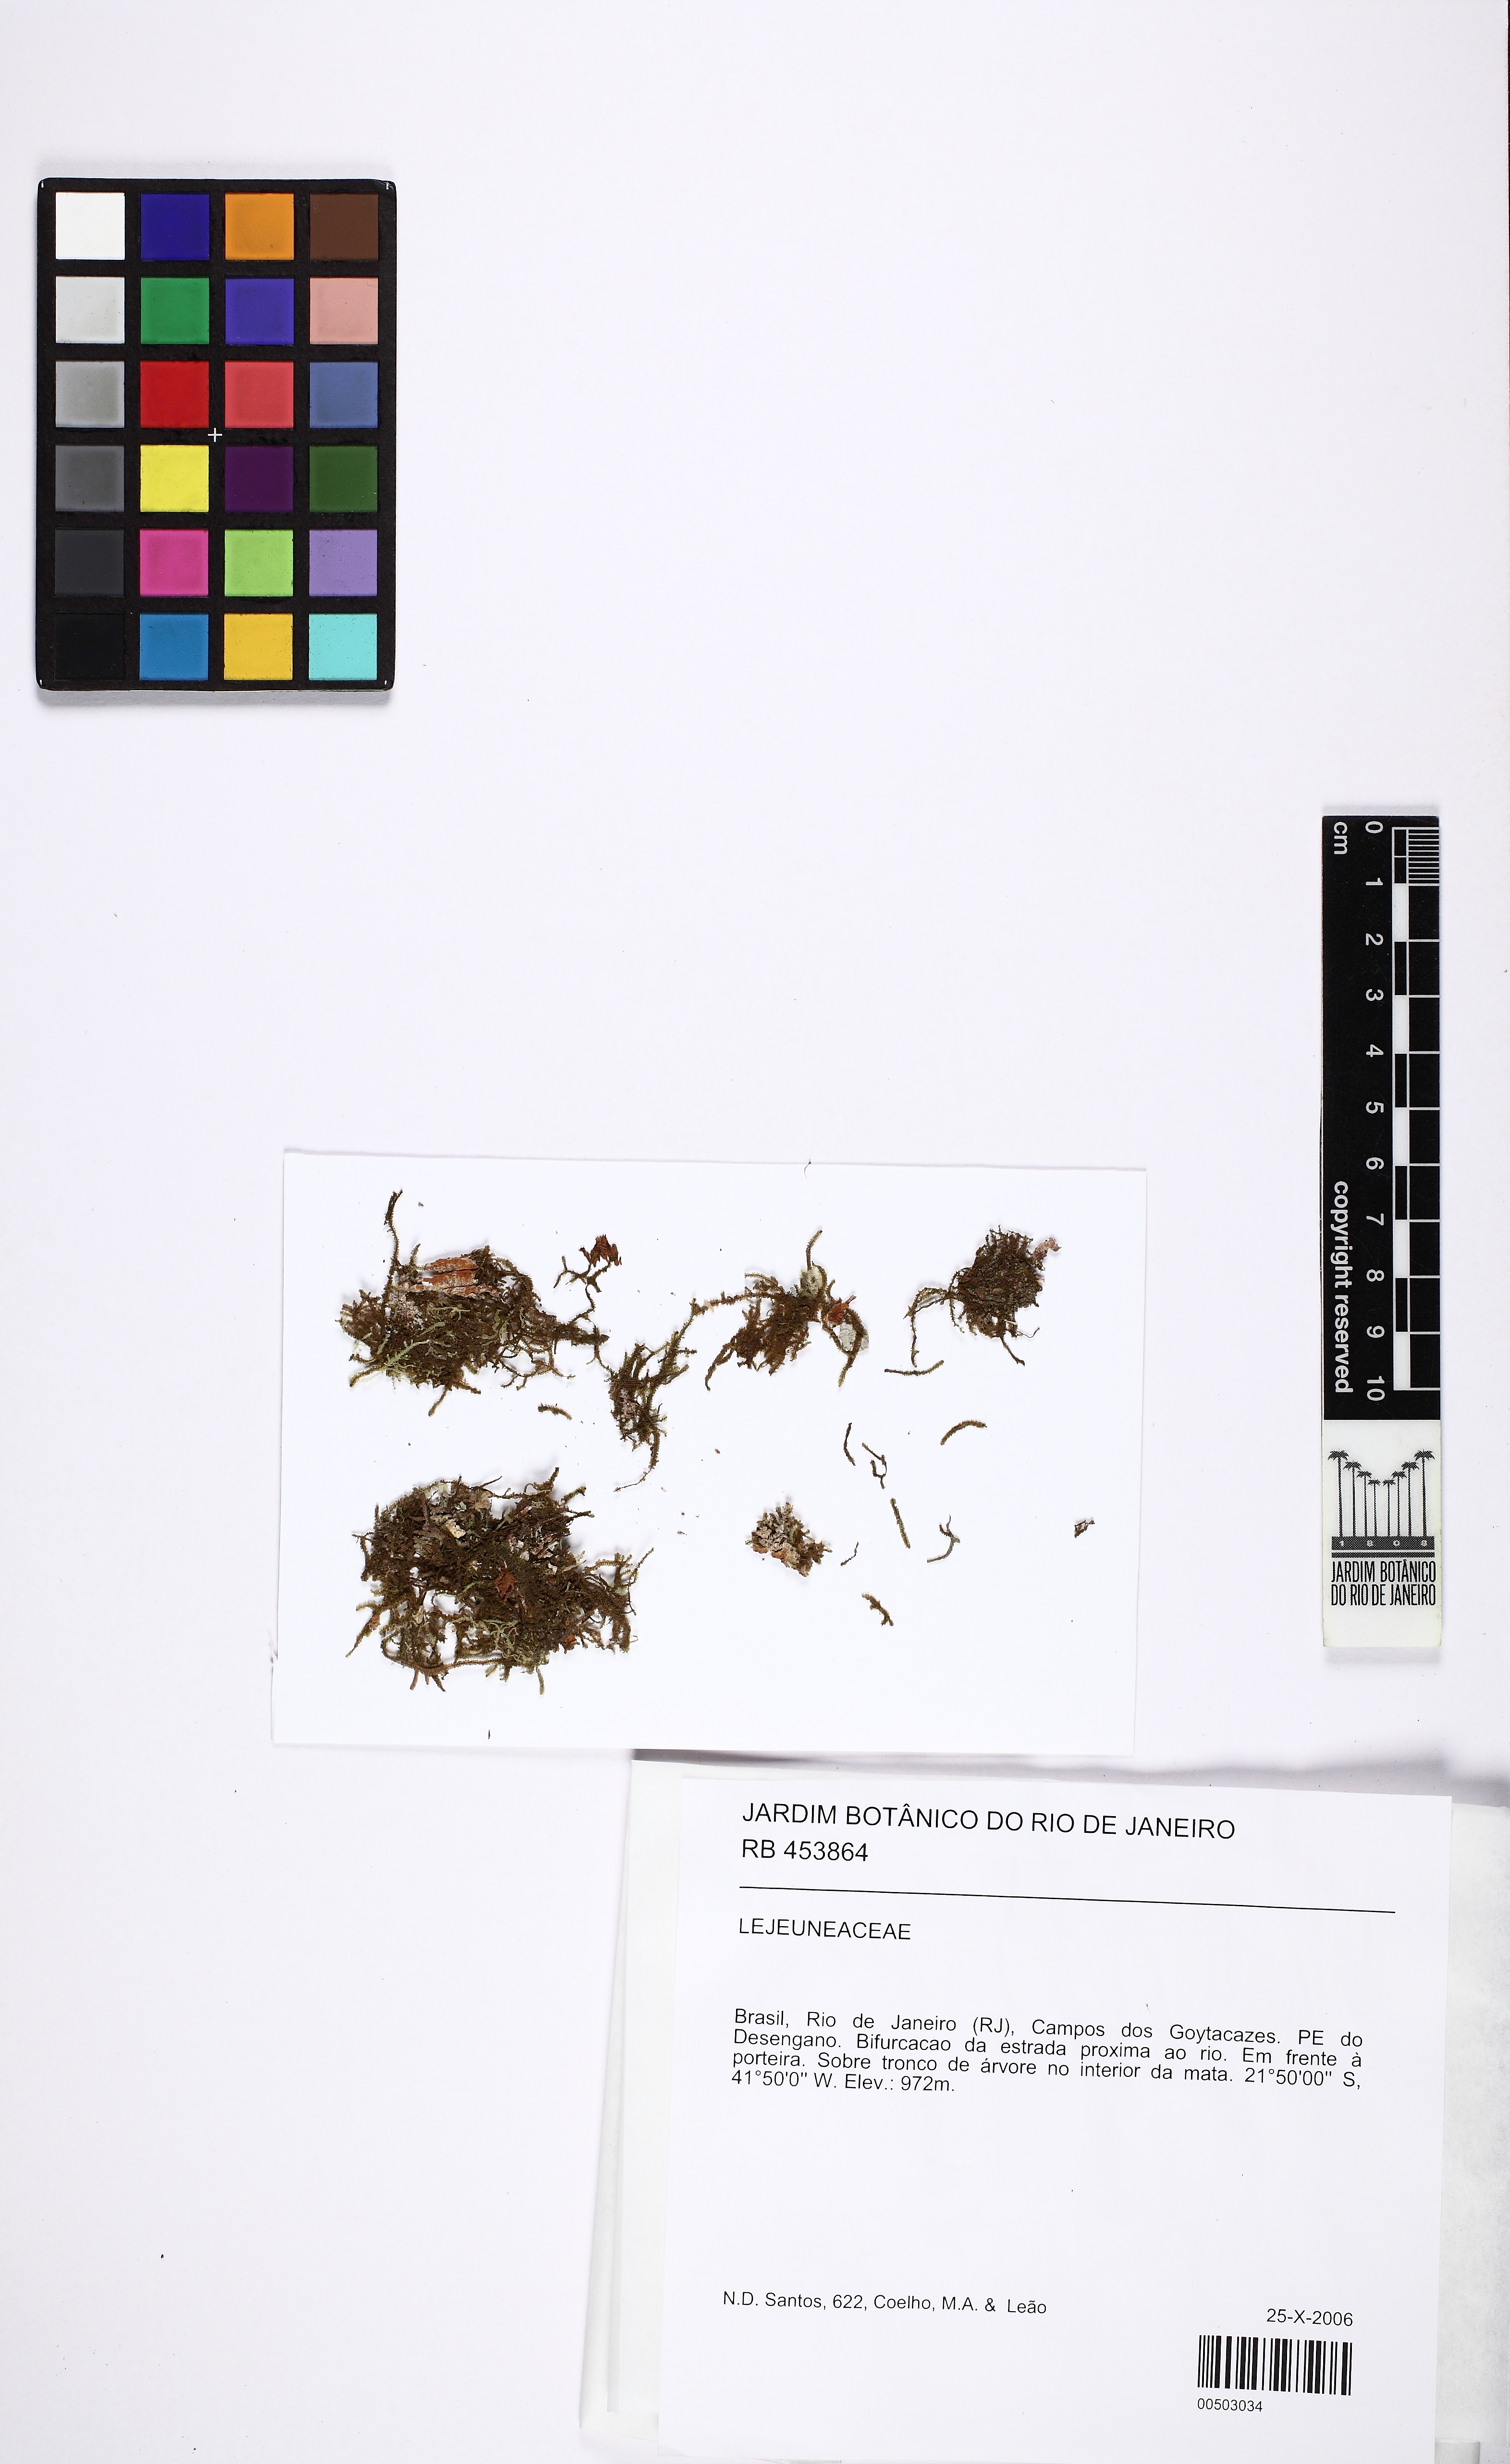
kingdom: Plantae
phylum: Marchantiophyta
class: Jungermanniopsida
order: Porellales
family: Lejeuneaceae
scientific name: Lejeuneaceae
